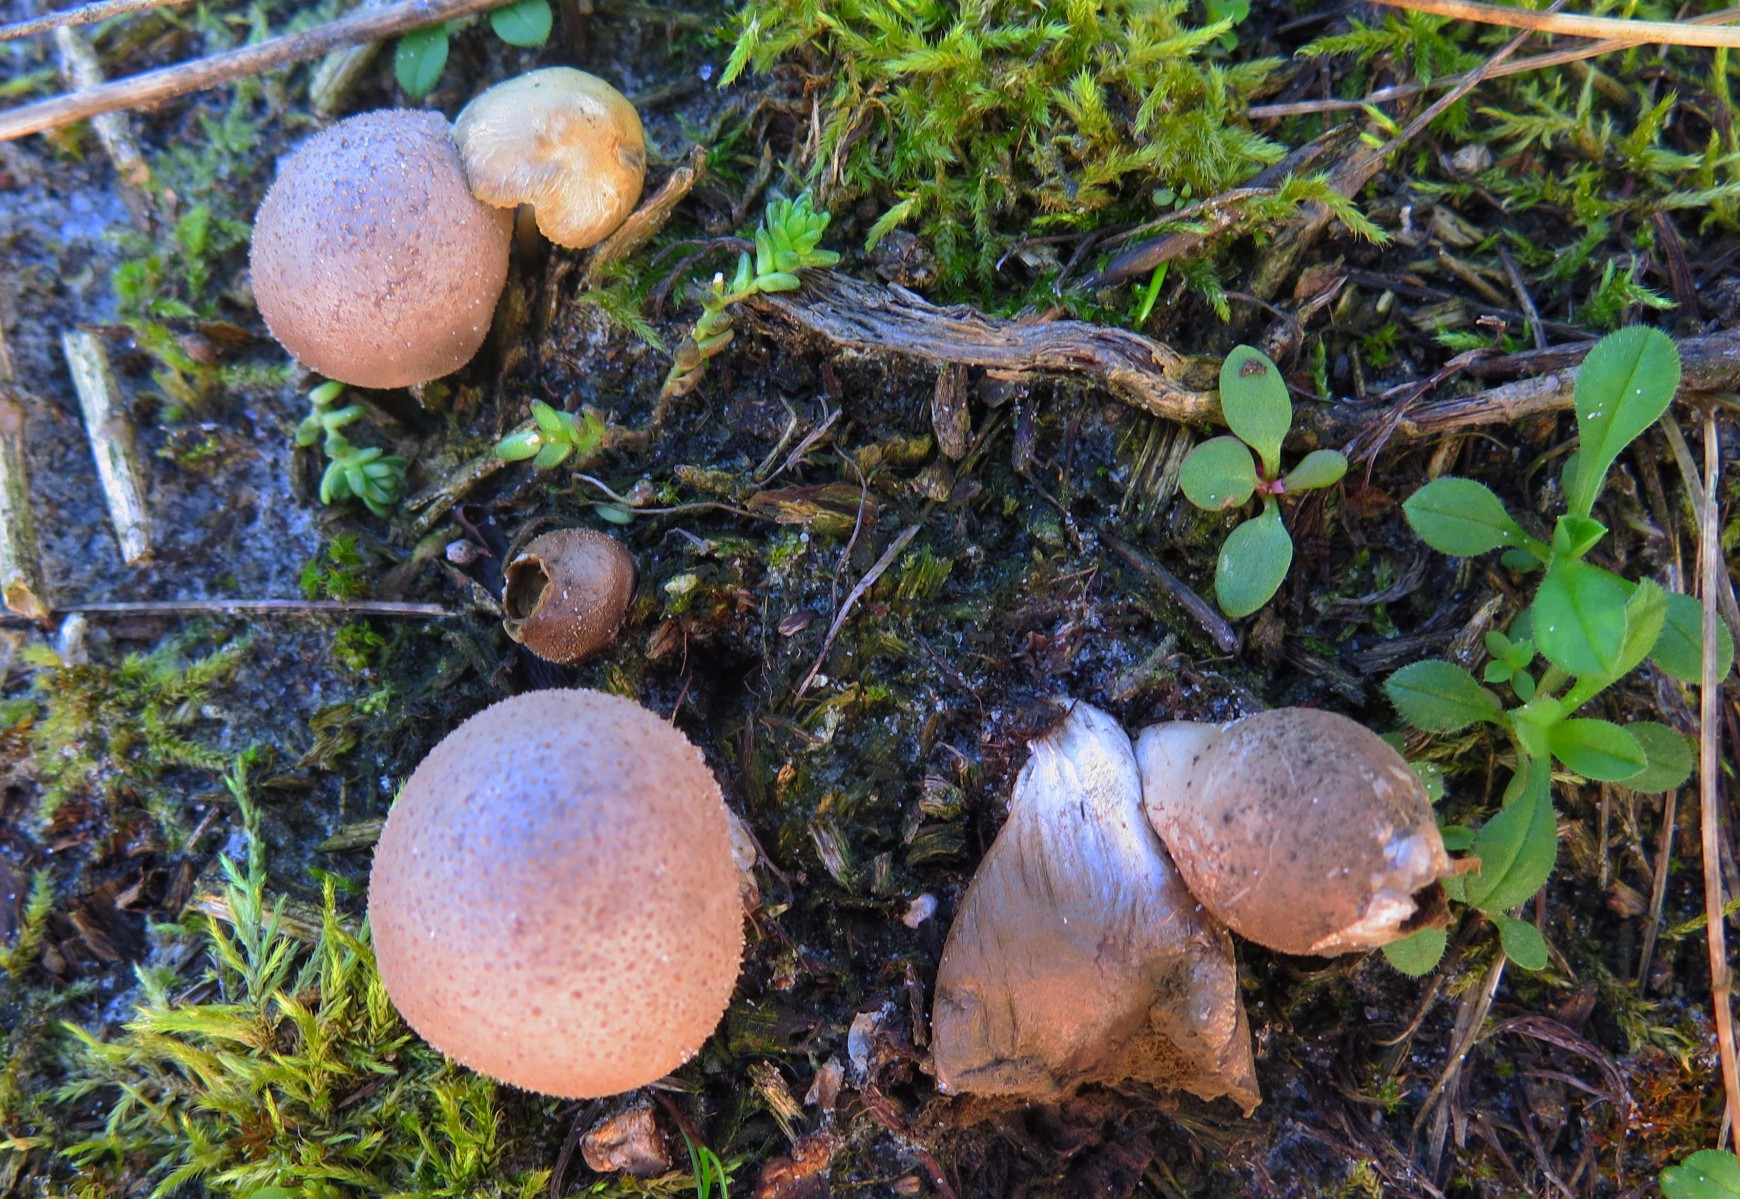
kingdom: Fungi
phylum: Basidiomycota
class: Agaricomycetes
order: Agaricales
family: Agaricaceae
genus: Lycoperdon
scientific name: Lycoperdon
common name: støvbold
